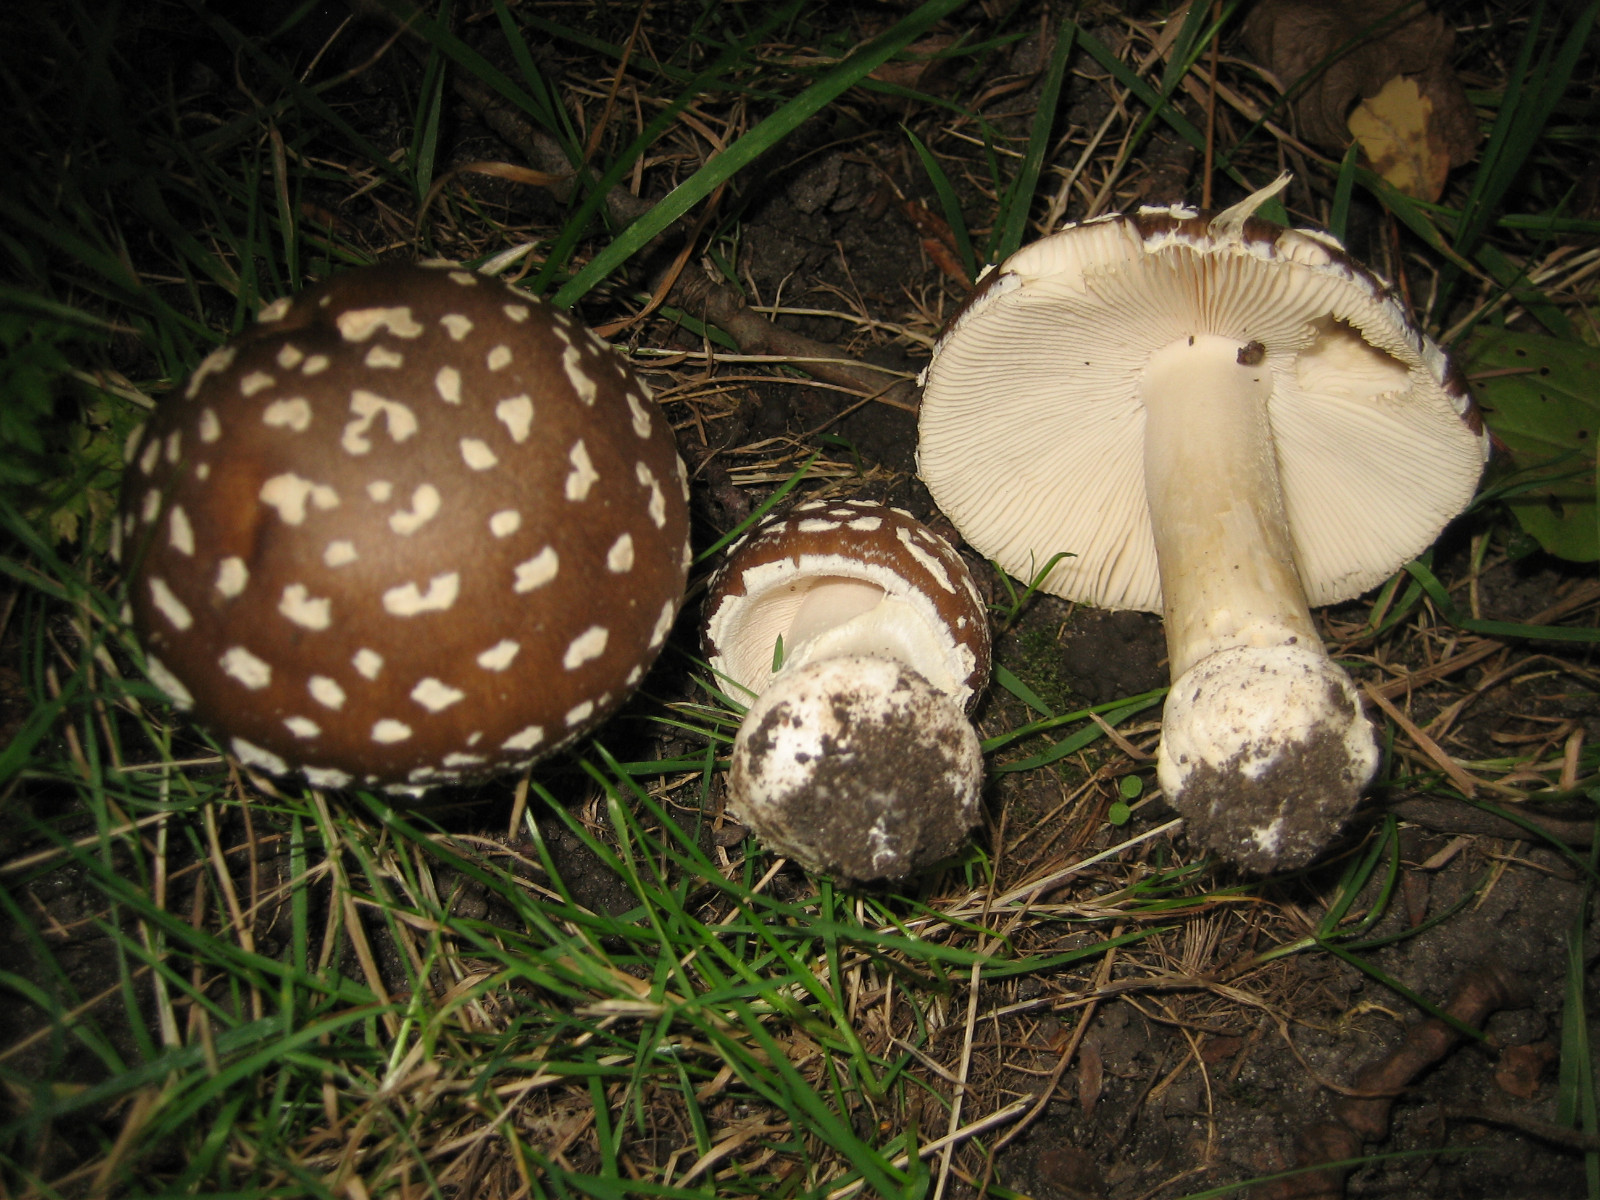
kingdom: Fungi
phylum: Basidiomycota
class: Agaricomycetes
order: Agaricales
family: Amanitaceae
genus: Amanita
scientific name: Amanita pantherina
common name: panter-fluesvamp
